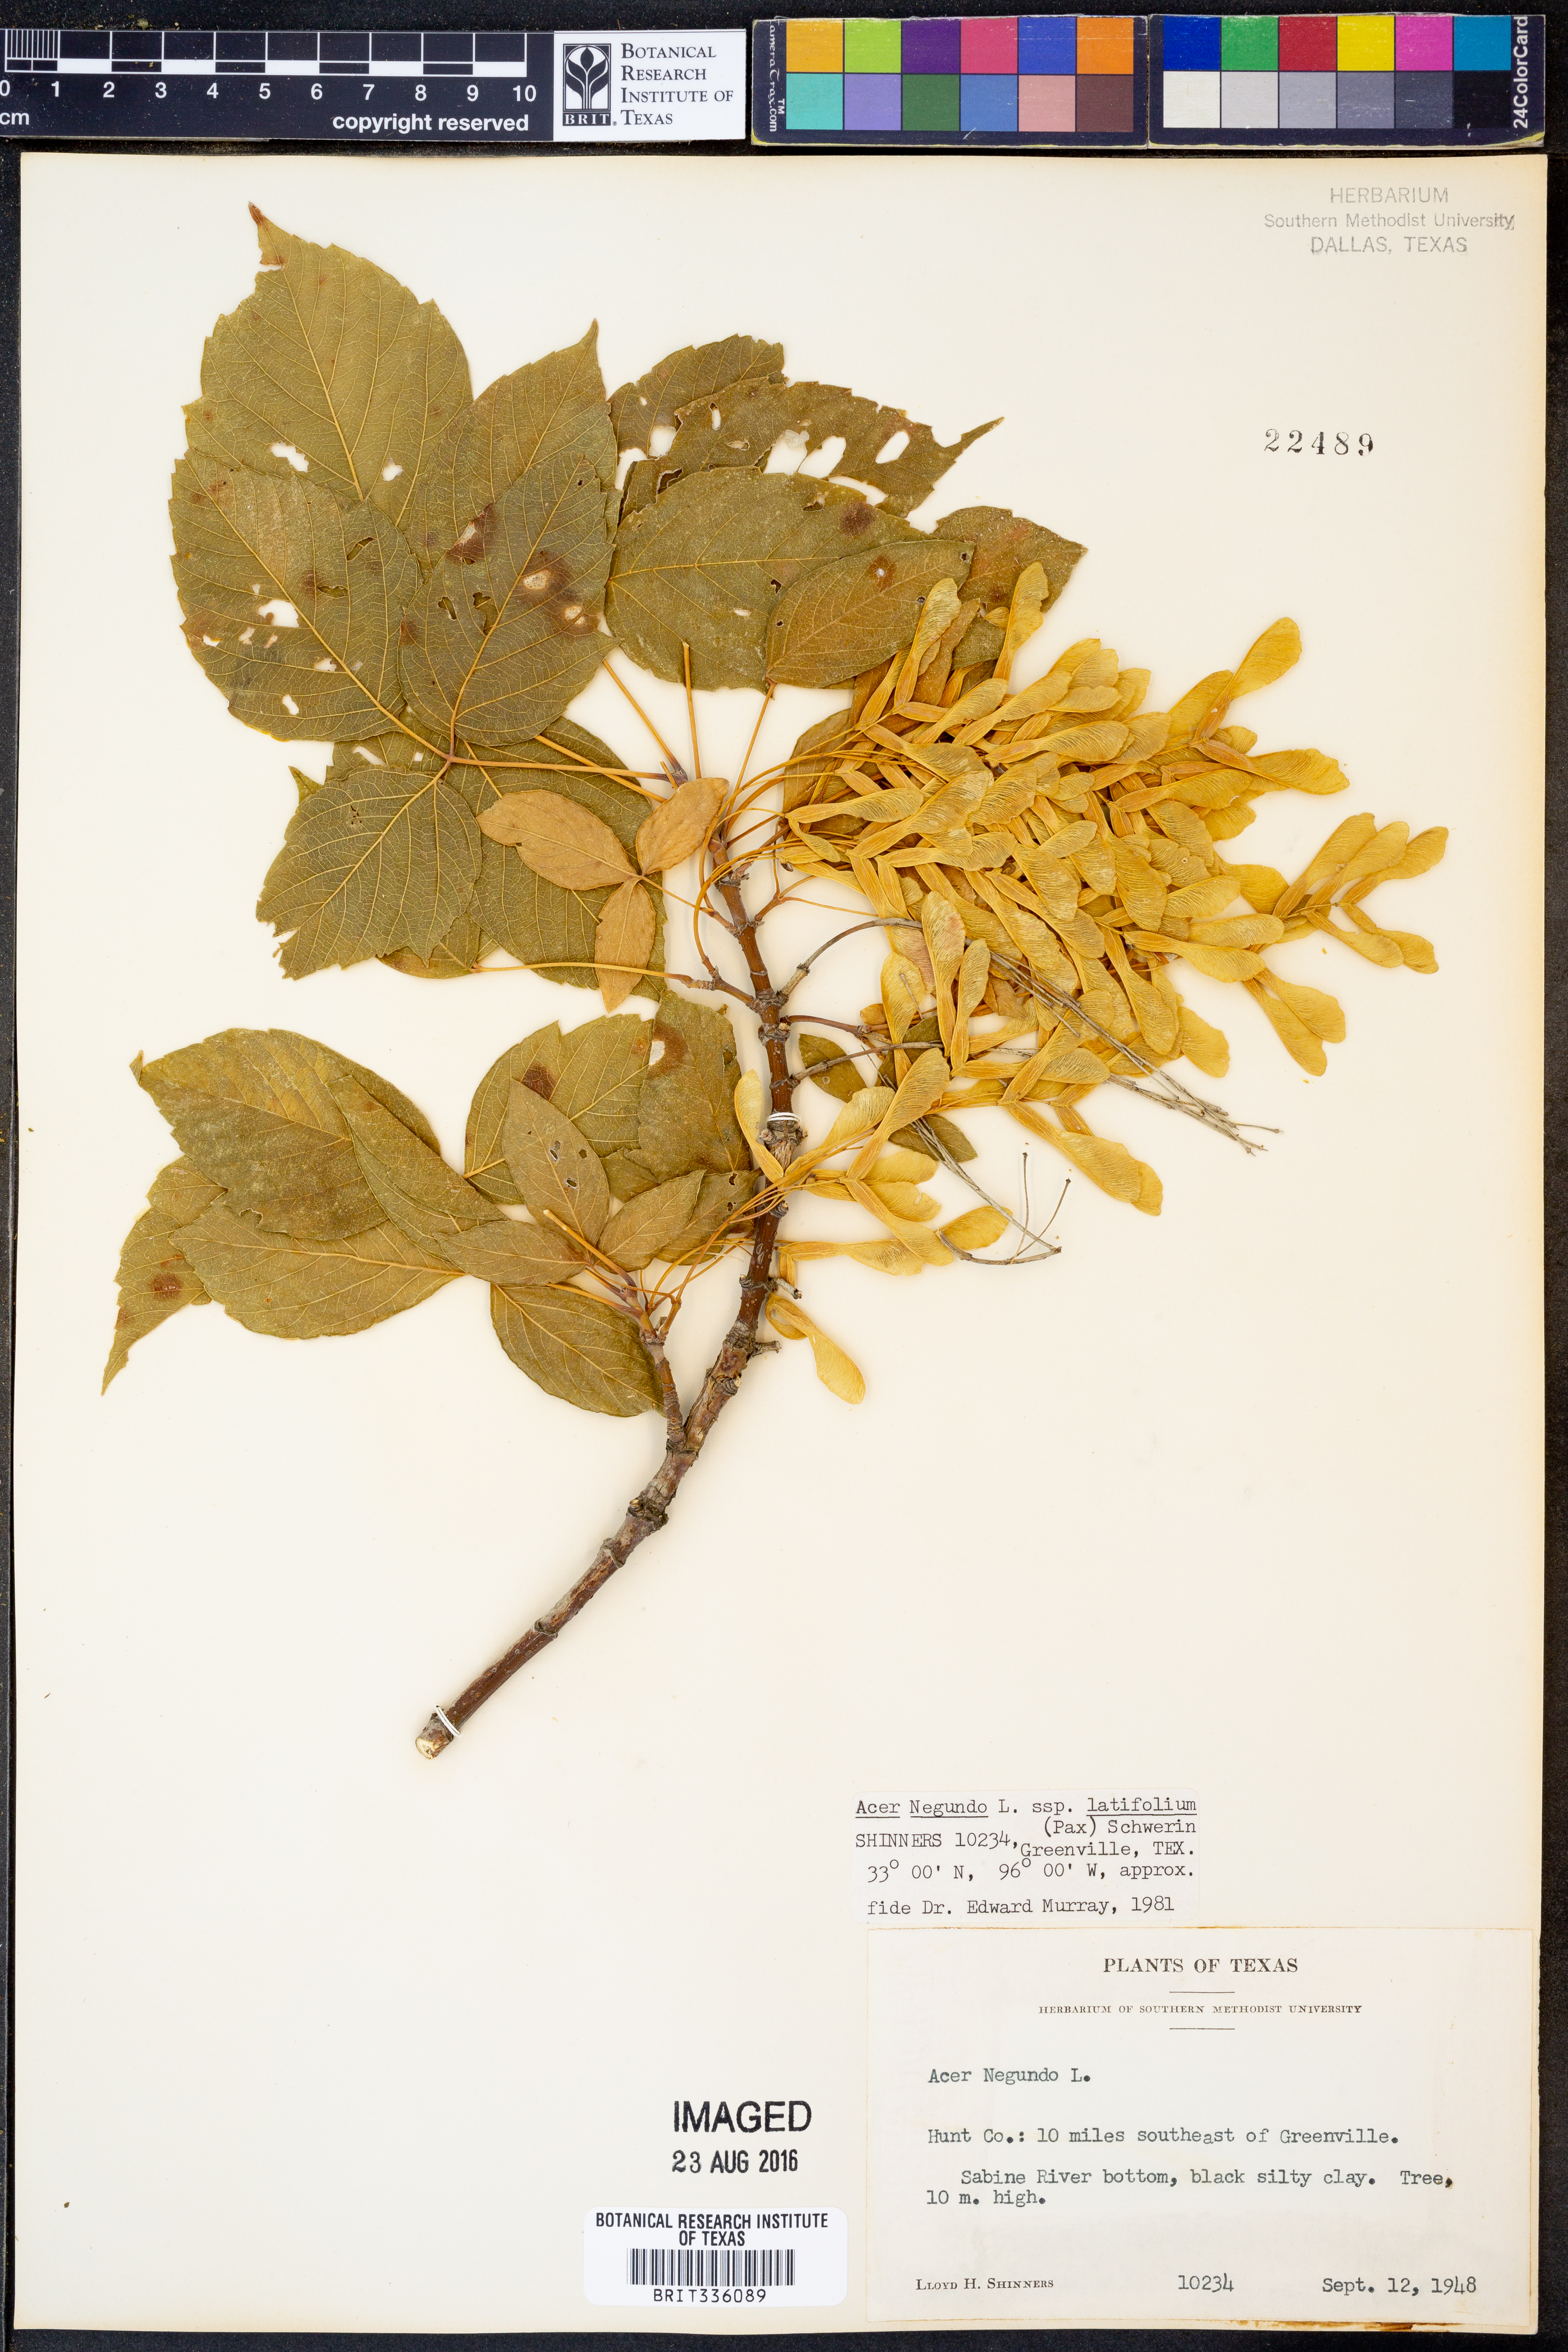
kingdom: Plantae
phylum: Tracheophyta
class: Magnoliopsida
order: Sapindales
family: Sapindaceae
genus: Acer
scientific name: Acer negundo
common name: Ashleaf maple
